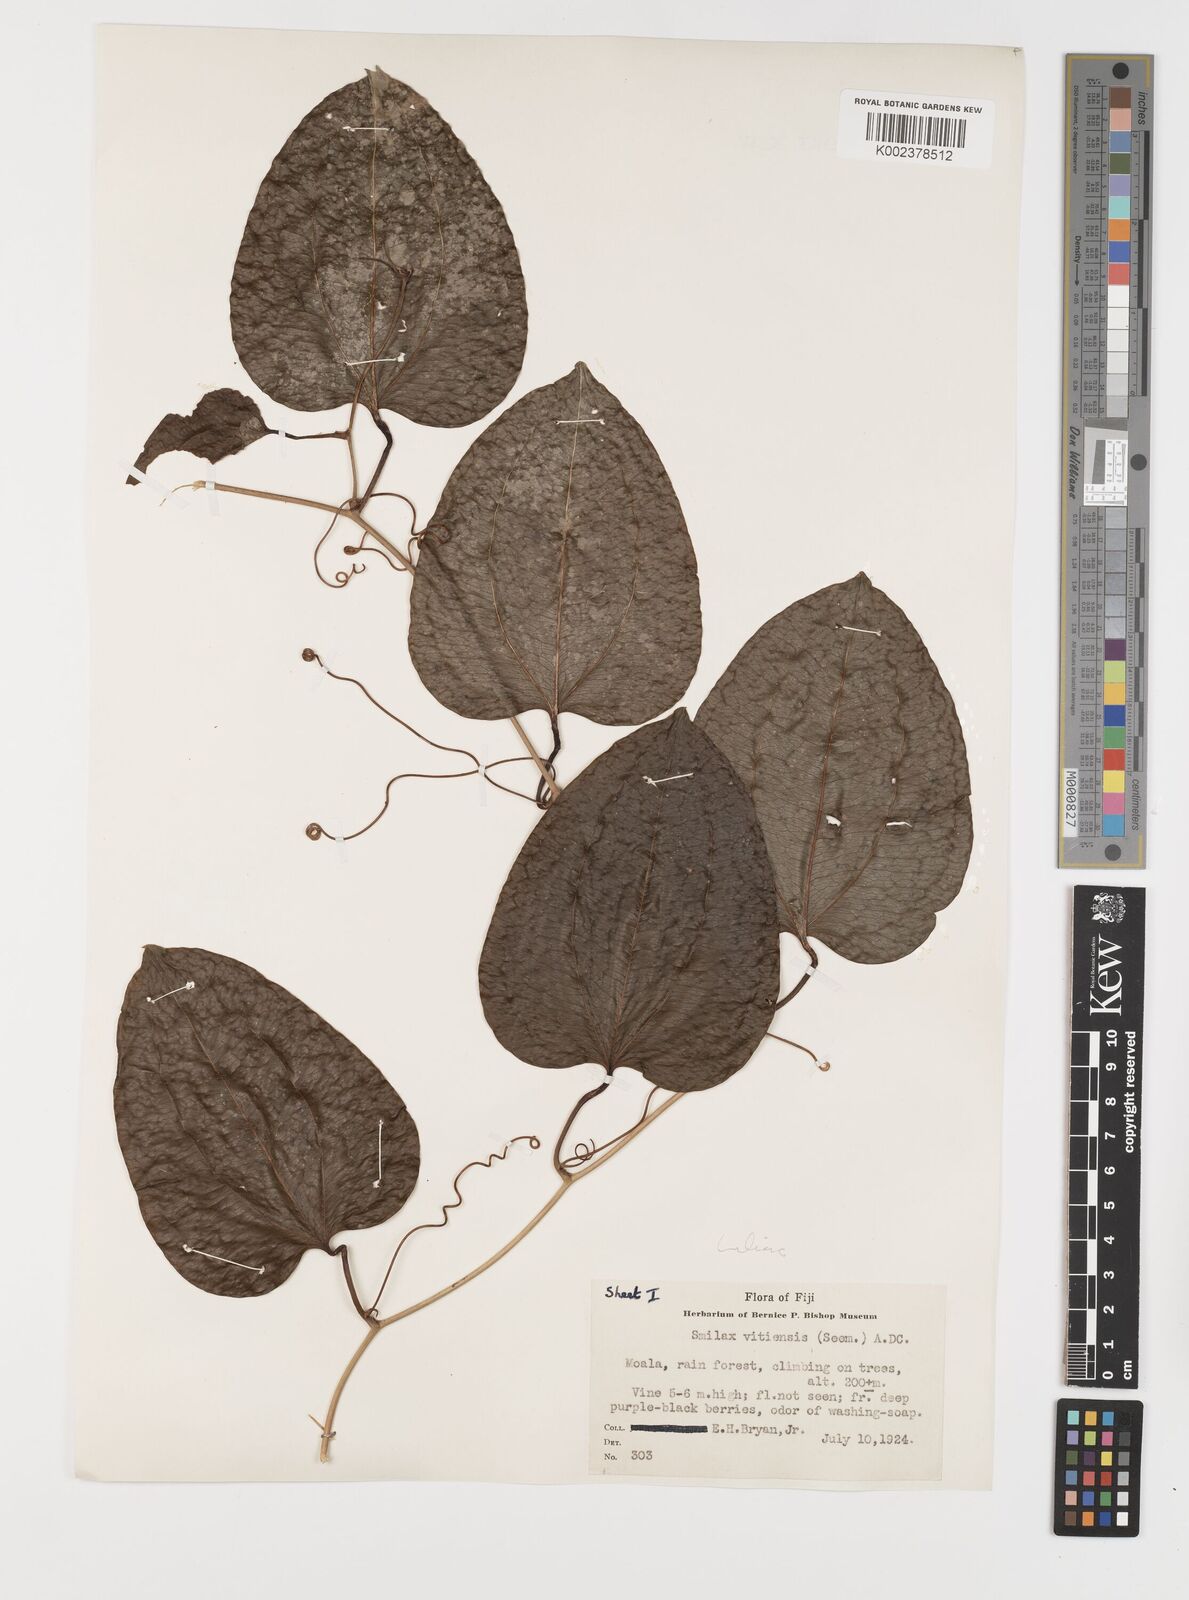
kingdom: Plantae
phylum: Tracheophyta
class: Liliopsida
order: Liliales
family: Smilacaceae
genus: Smilax
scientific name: Smilax vitiensis
